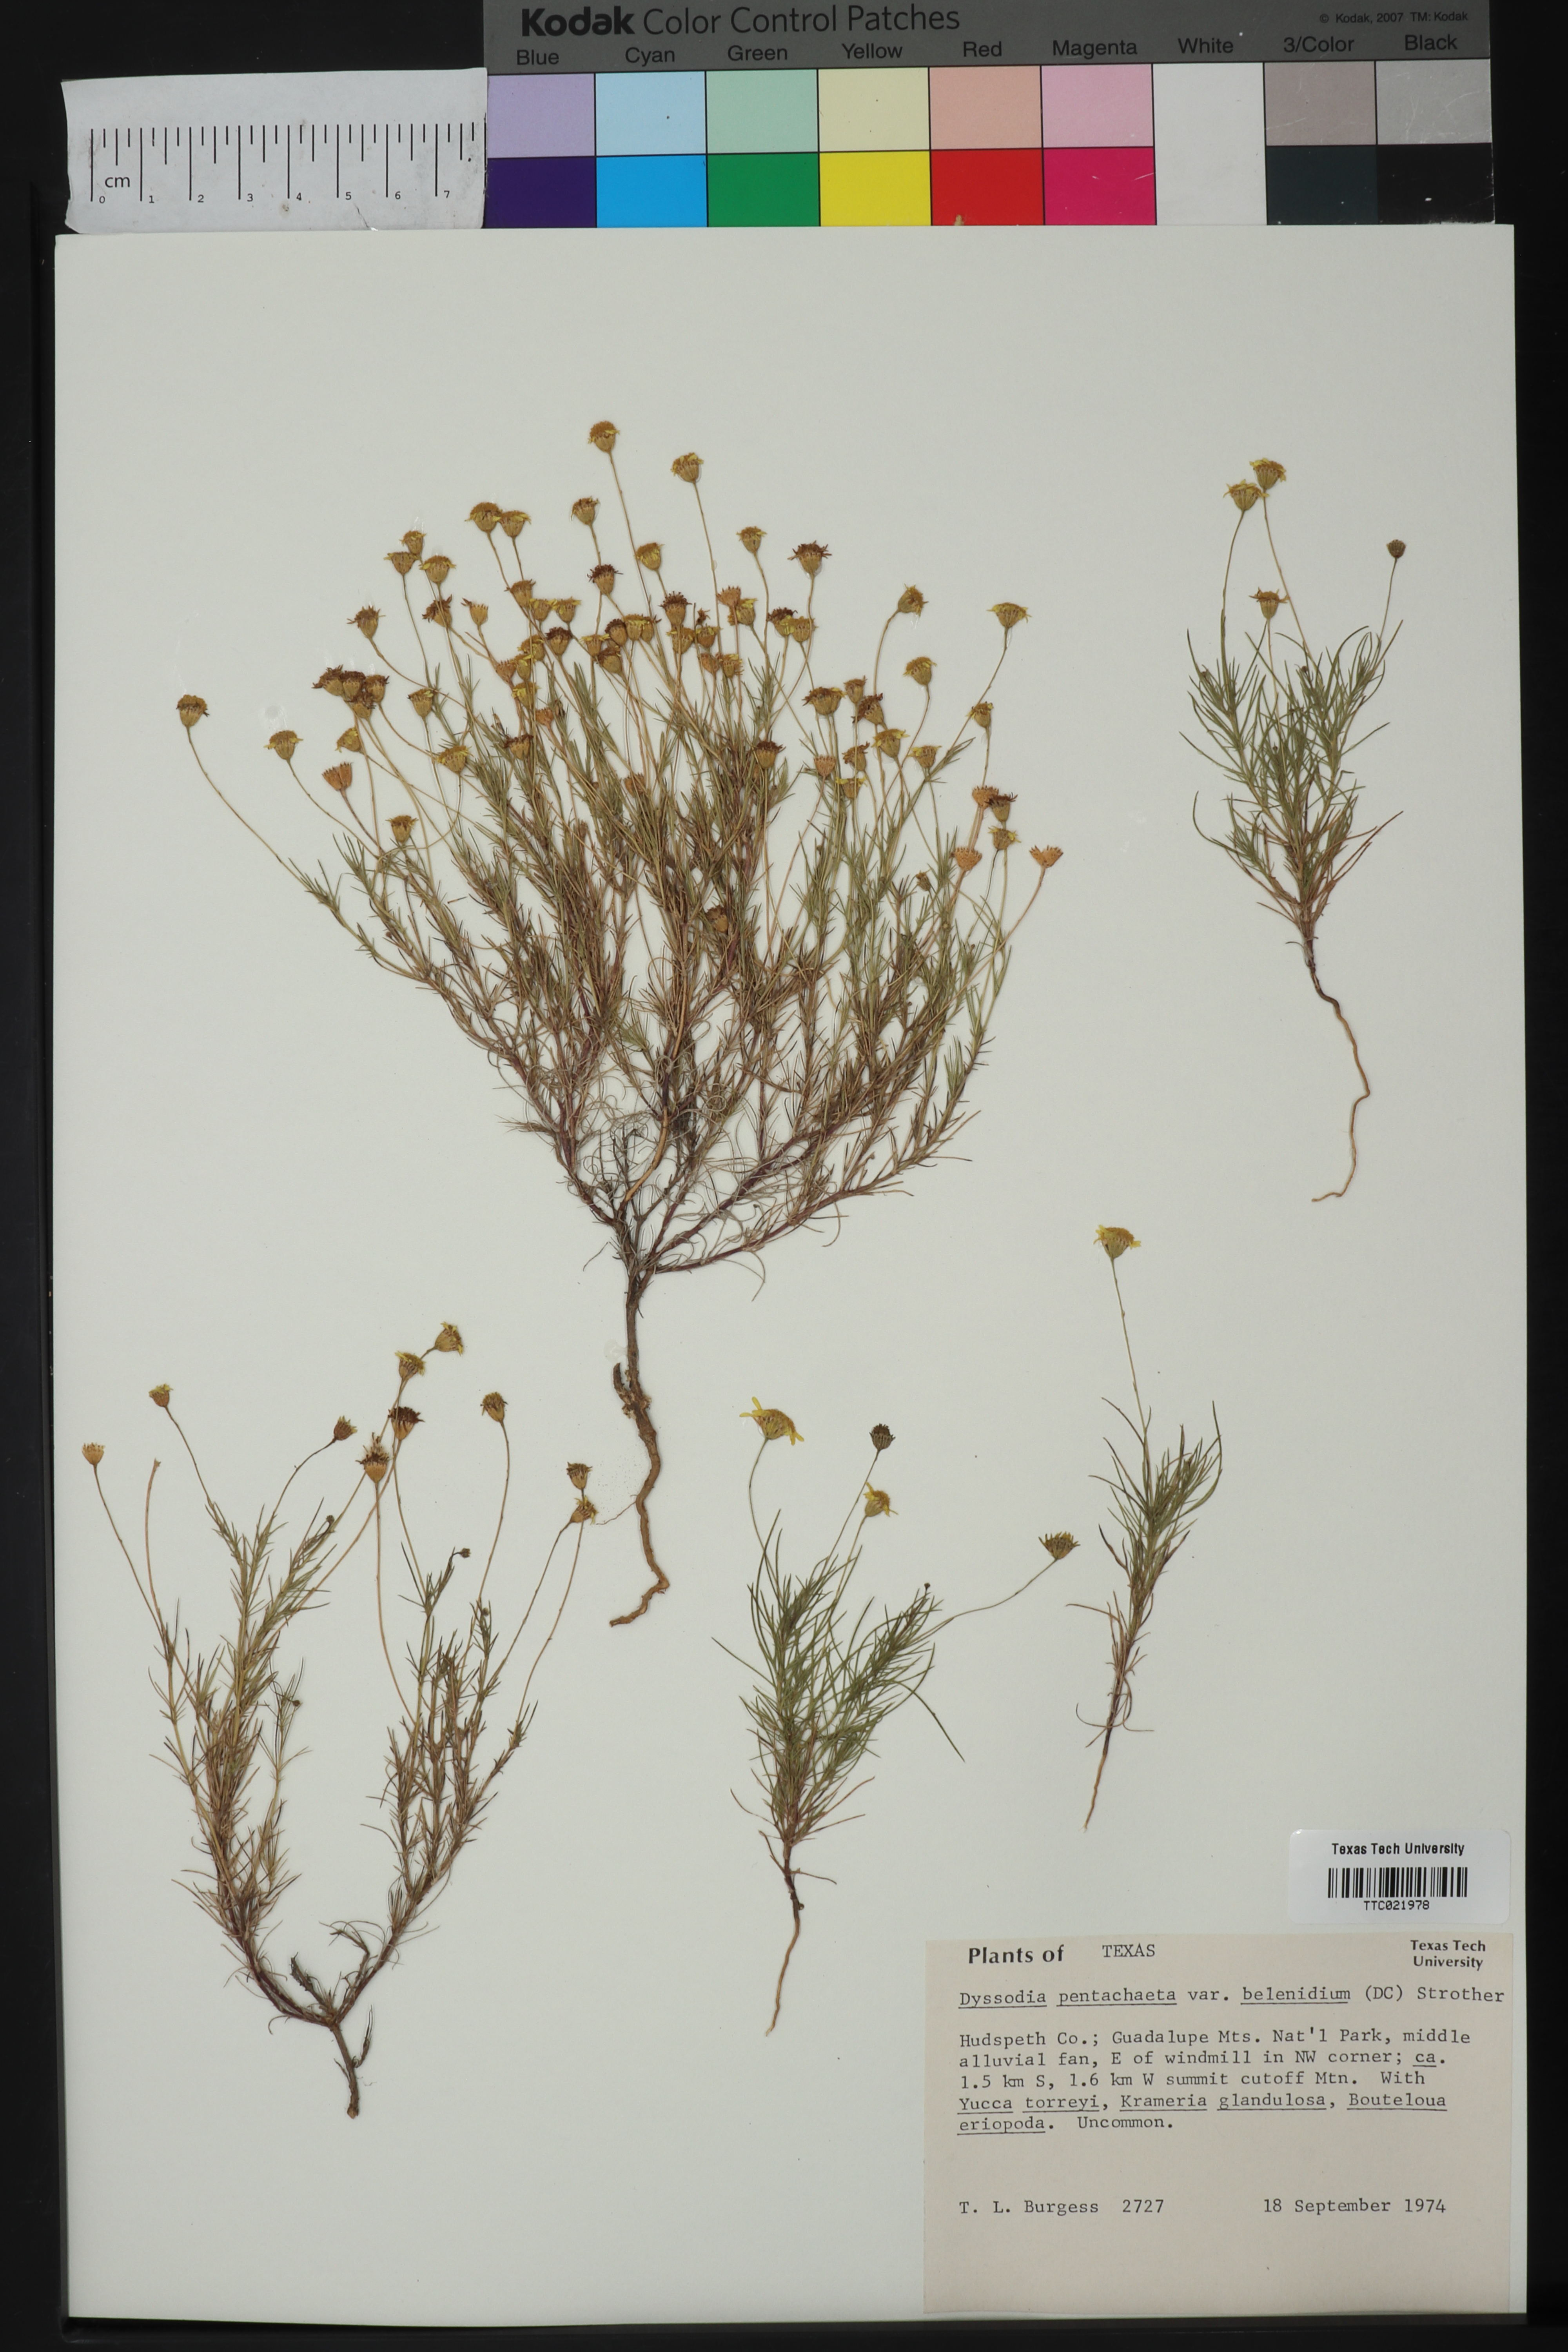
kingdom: Plantae
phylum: Tracheophyta
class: Magnoliopsida
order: Asterales
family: Asteraceae
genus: Thymophylla
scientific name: Thymophylla pentachaeta
